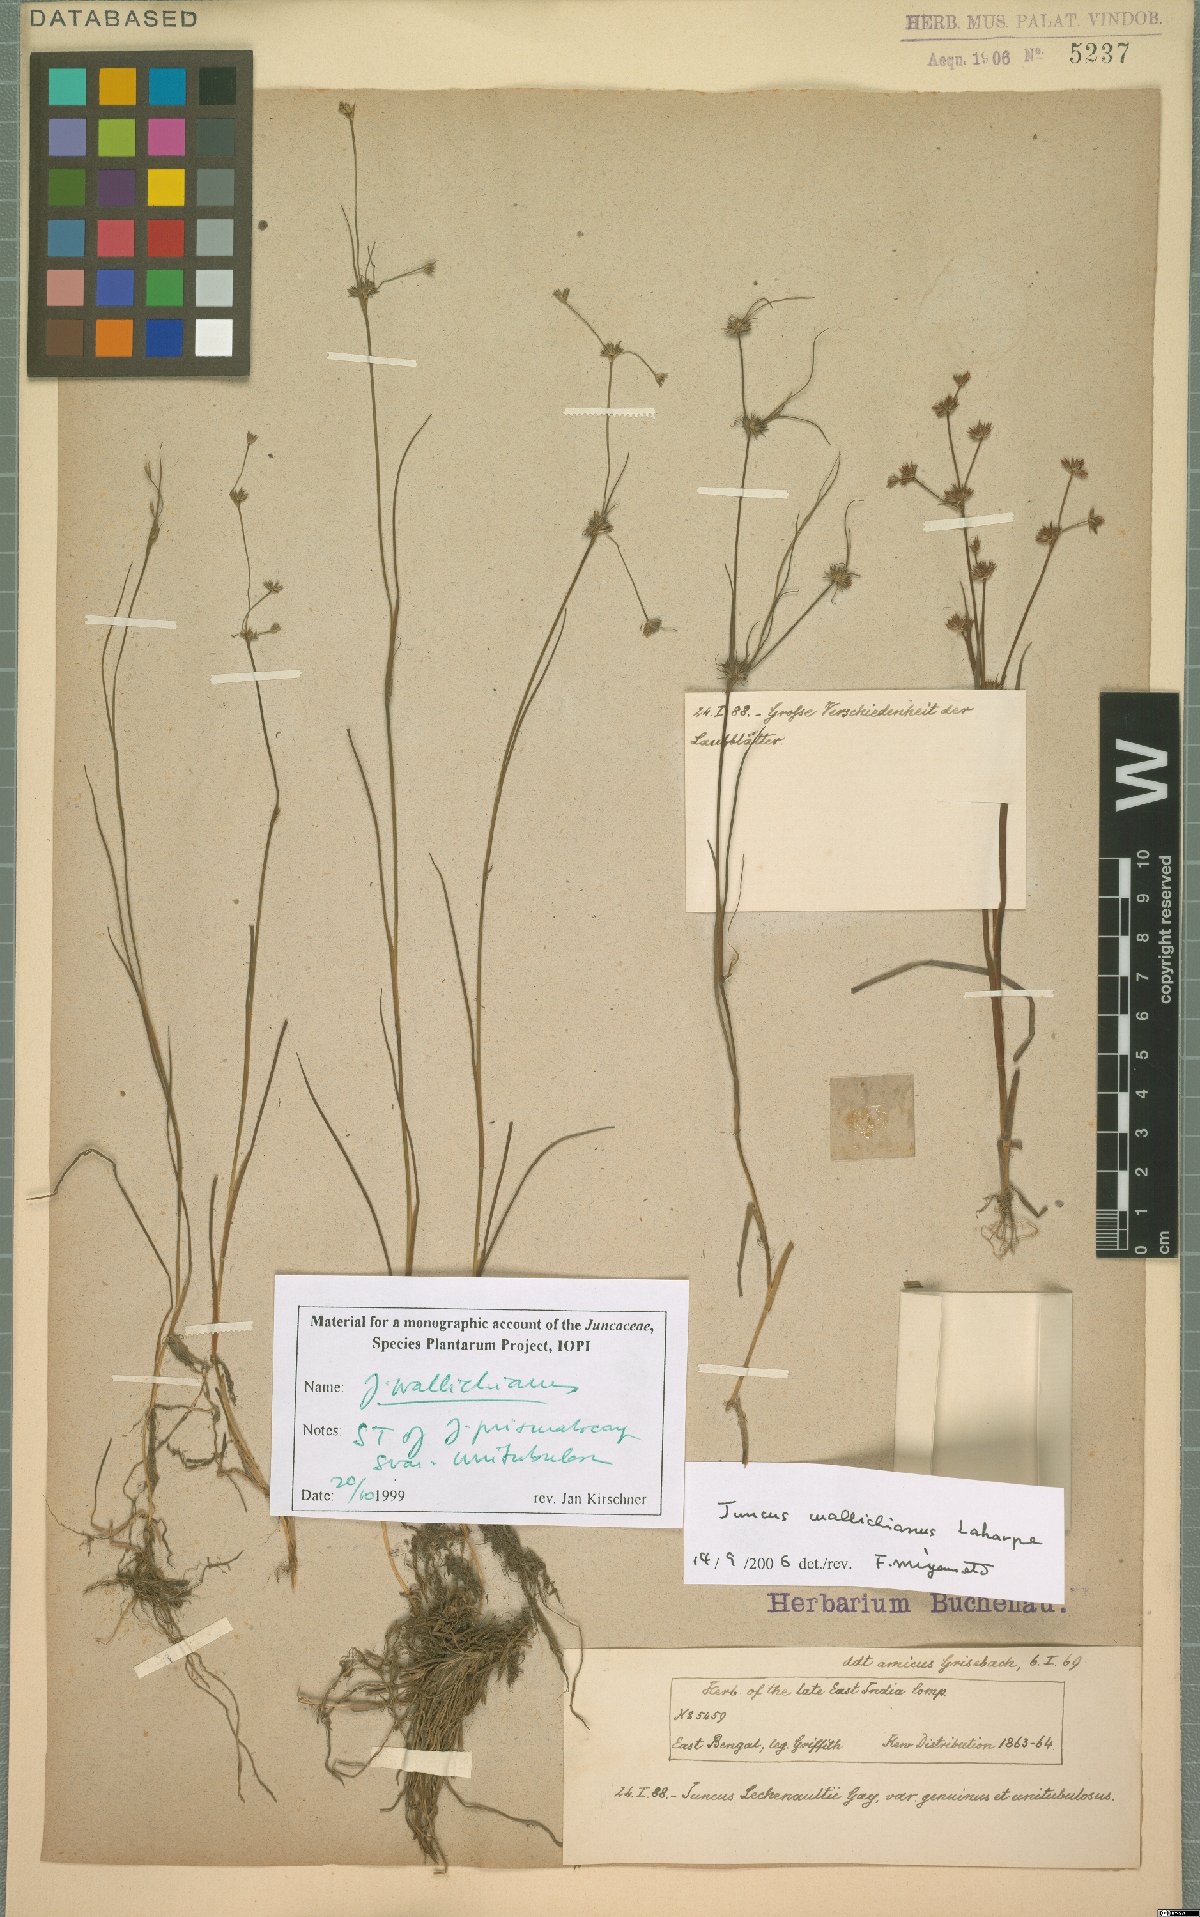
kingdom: Plantae
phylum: Tracheophyta
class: Liliopsida
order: Poales
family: Juncaceae
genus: Juncus
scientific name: Juncus wallichianus
